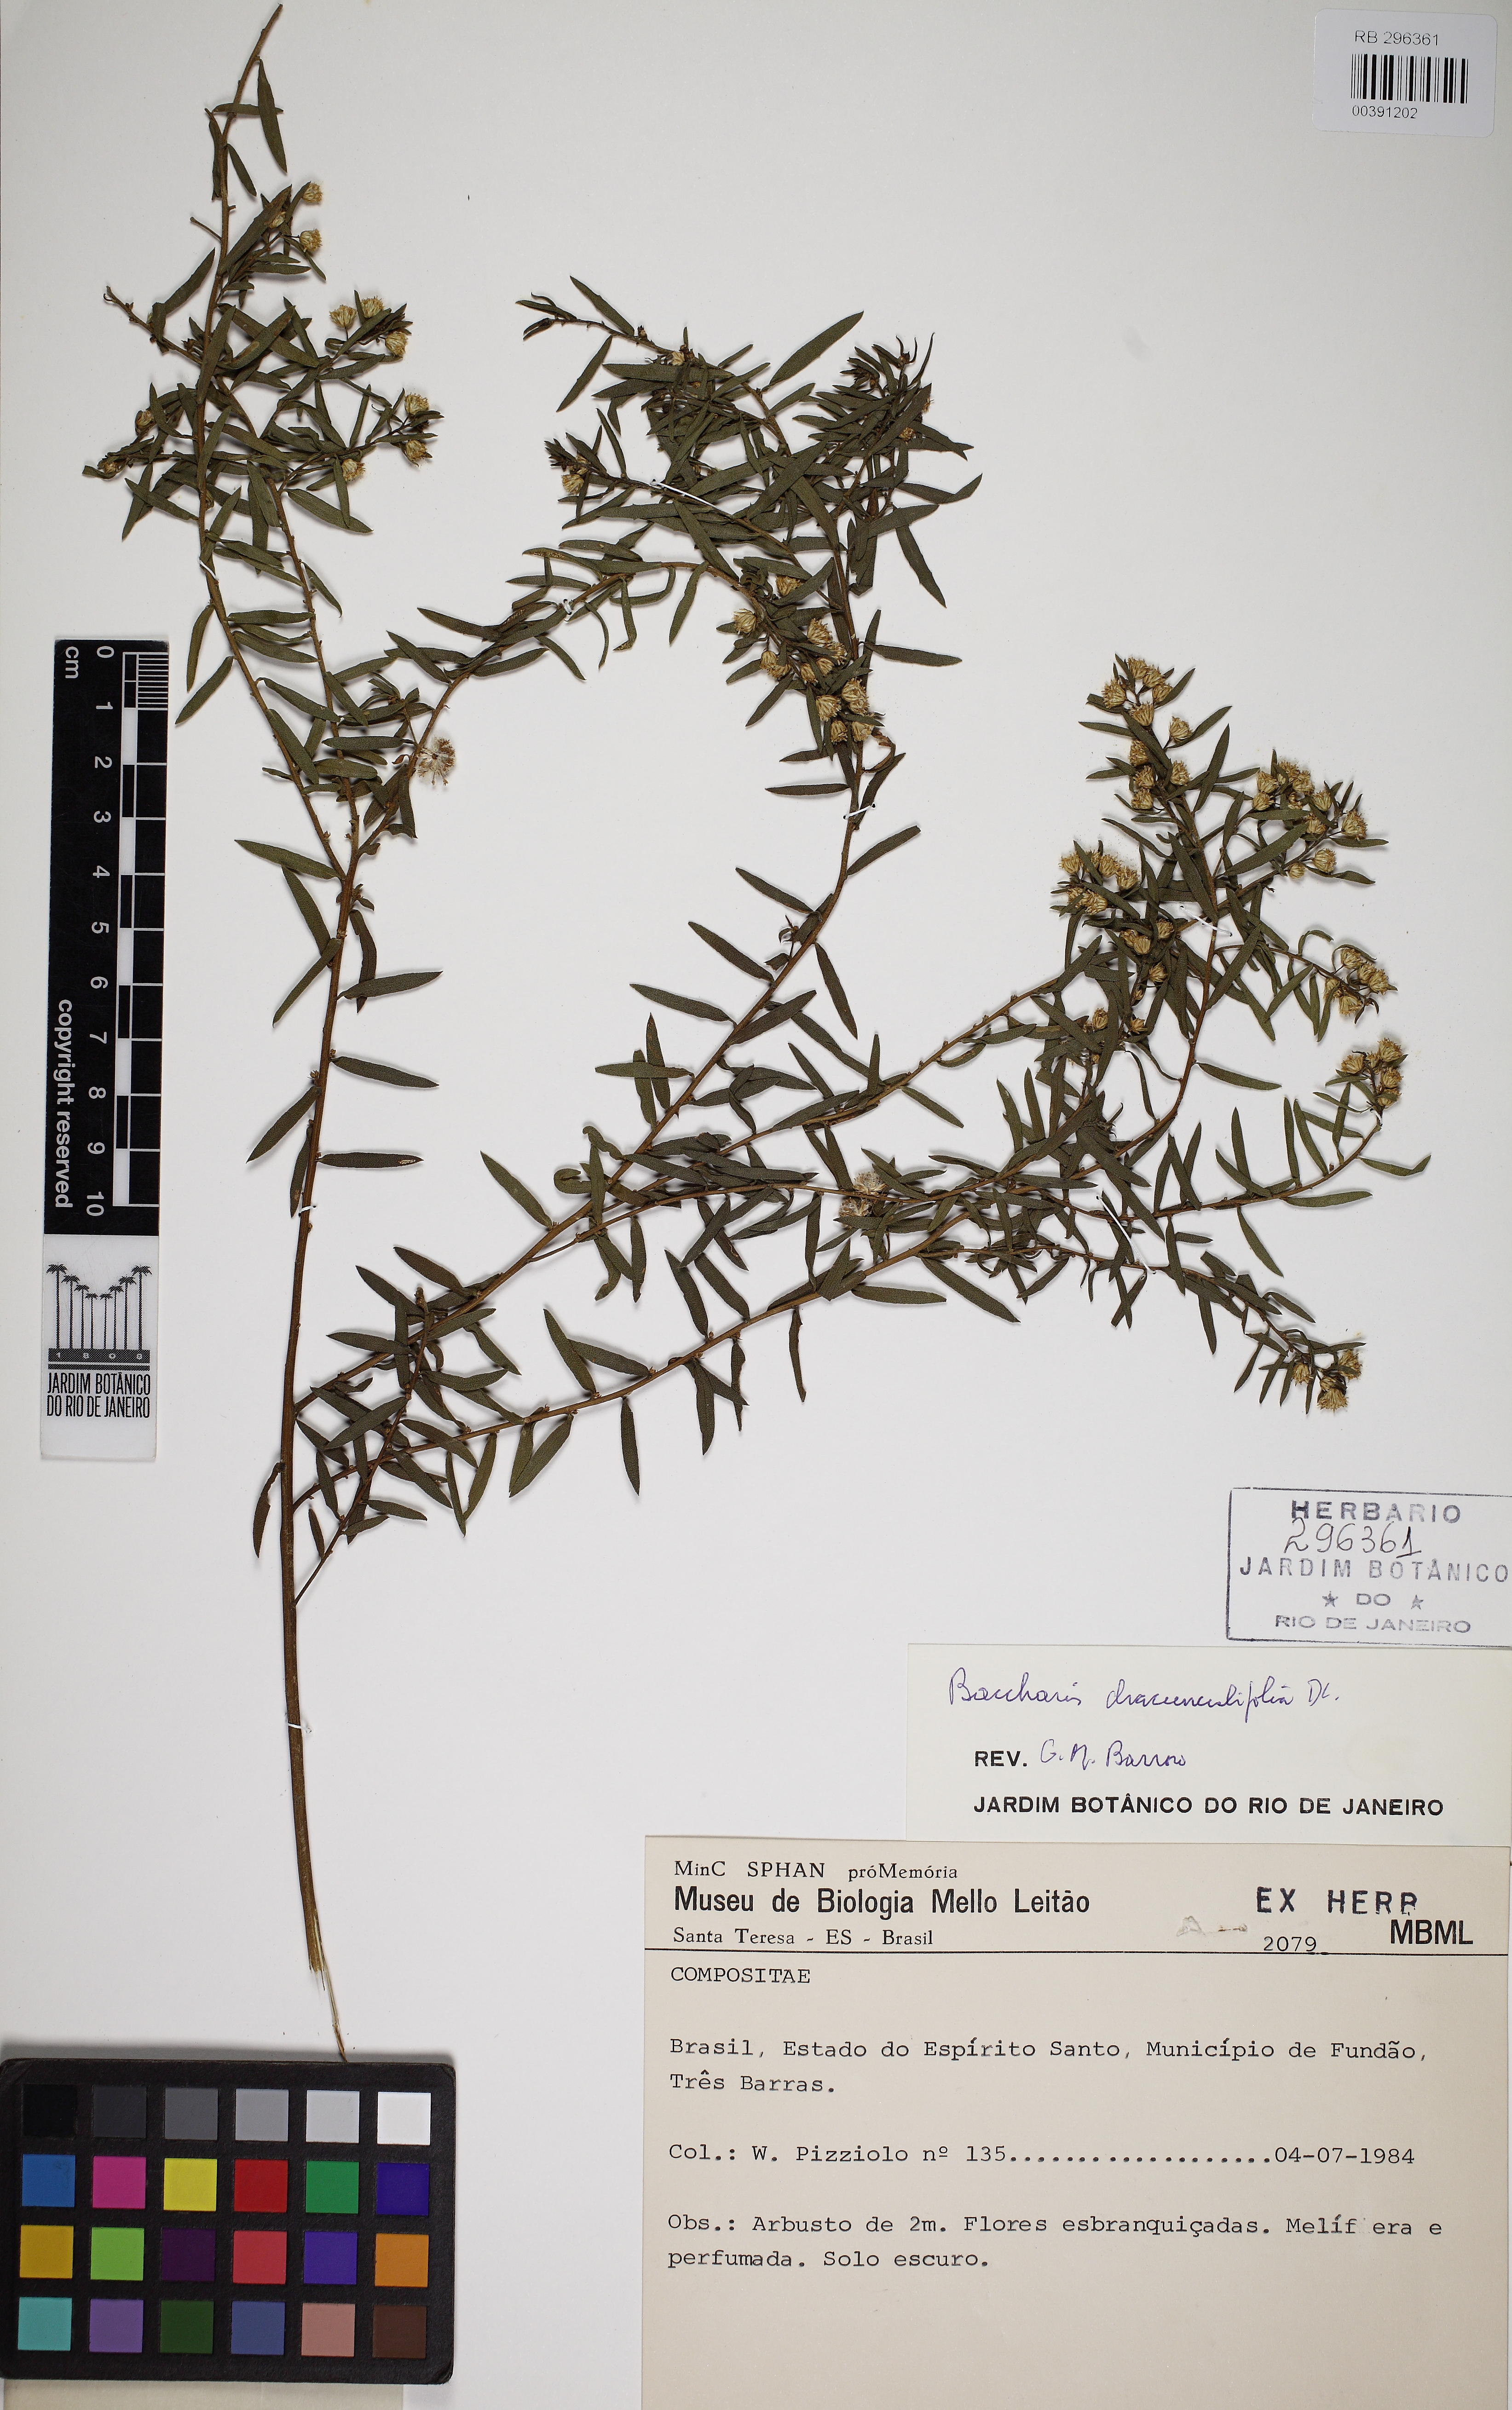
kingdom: Plantae
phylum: Tracheophyta
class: Magnoliopsida
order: Asterales
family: Asteraceae
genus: Baccharis
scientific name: Baccharis dracunculifolia
